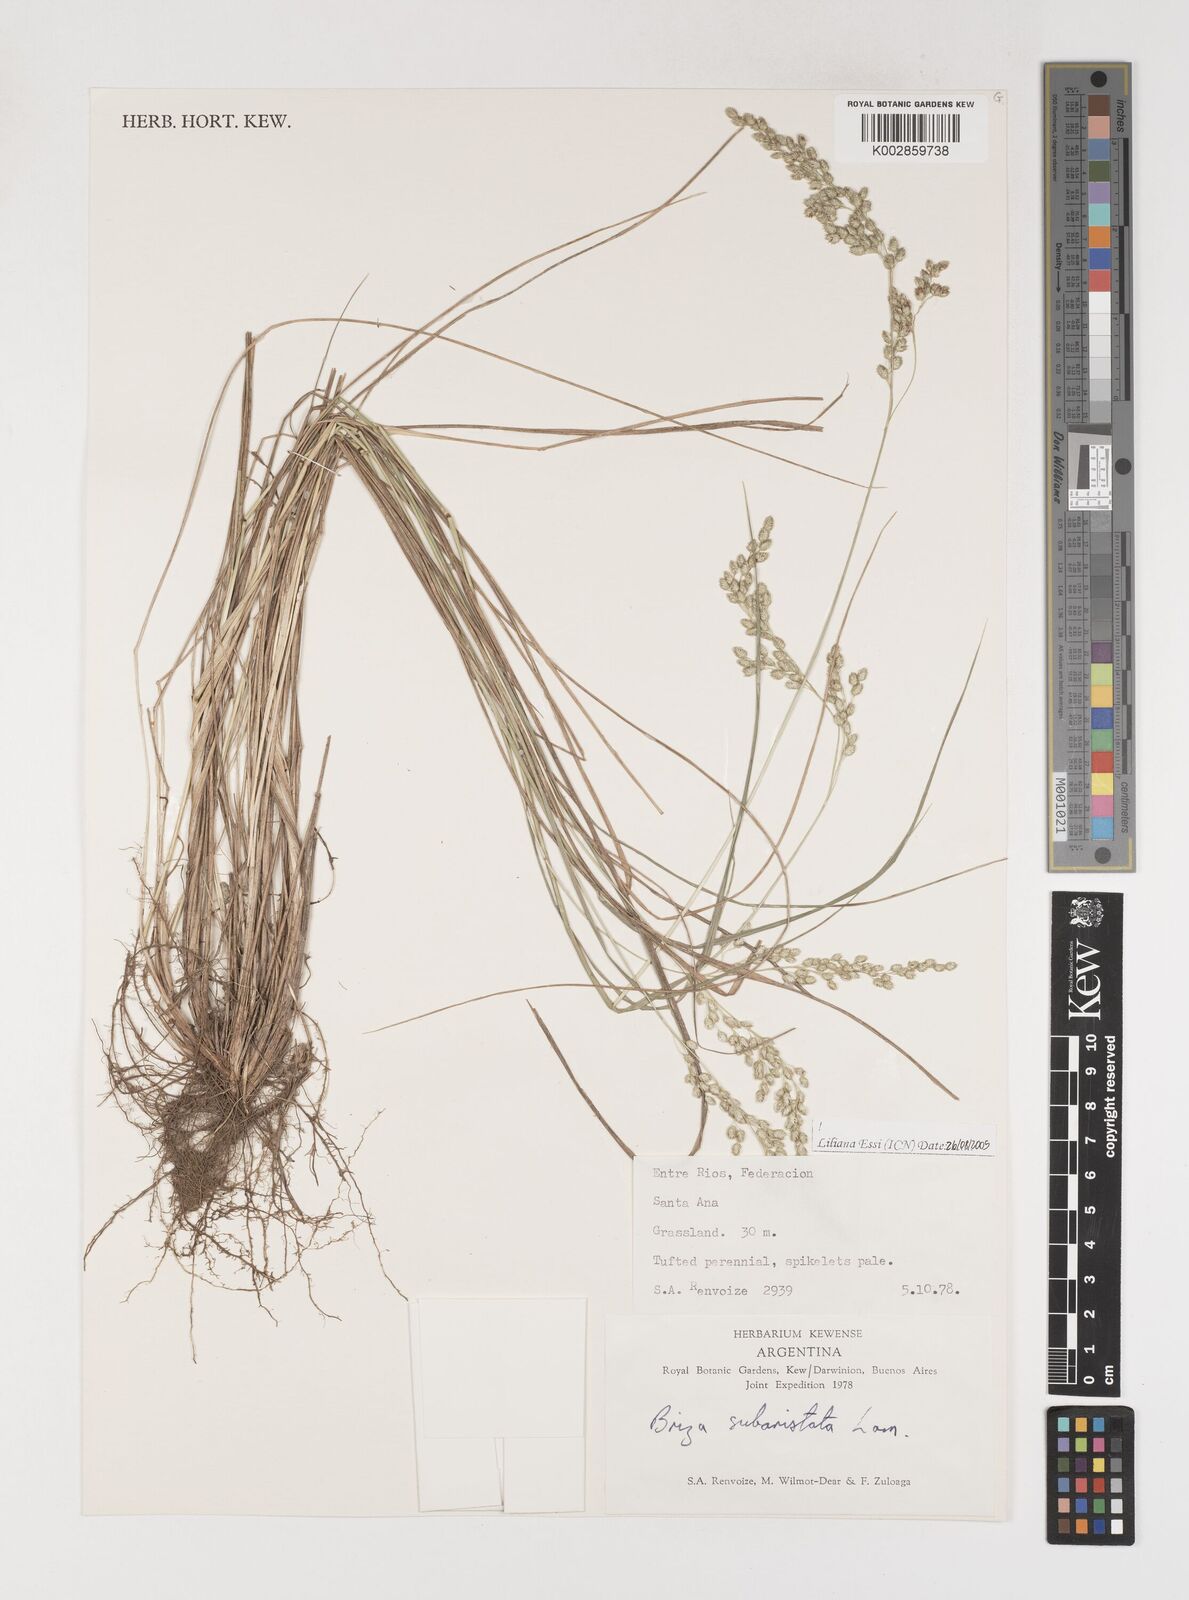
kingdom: Plantae
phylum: Tracheophyta
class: Liliopsida
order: Poales
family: Poaceae
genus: Chascolytrum
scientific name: Chascolytrum subaristatum
